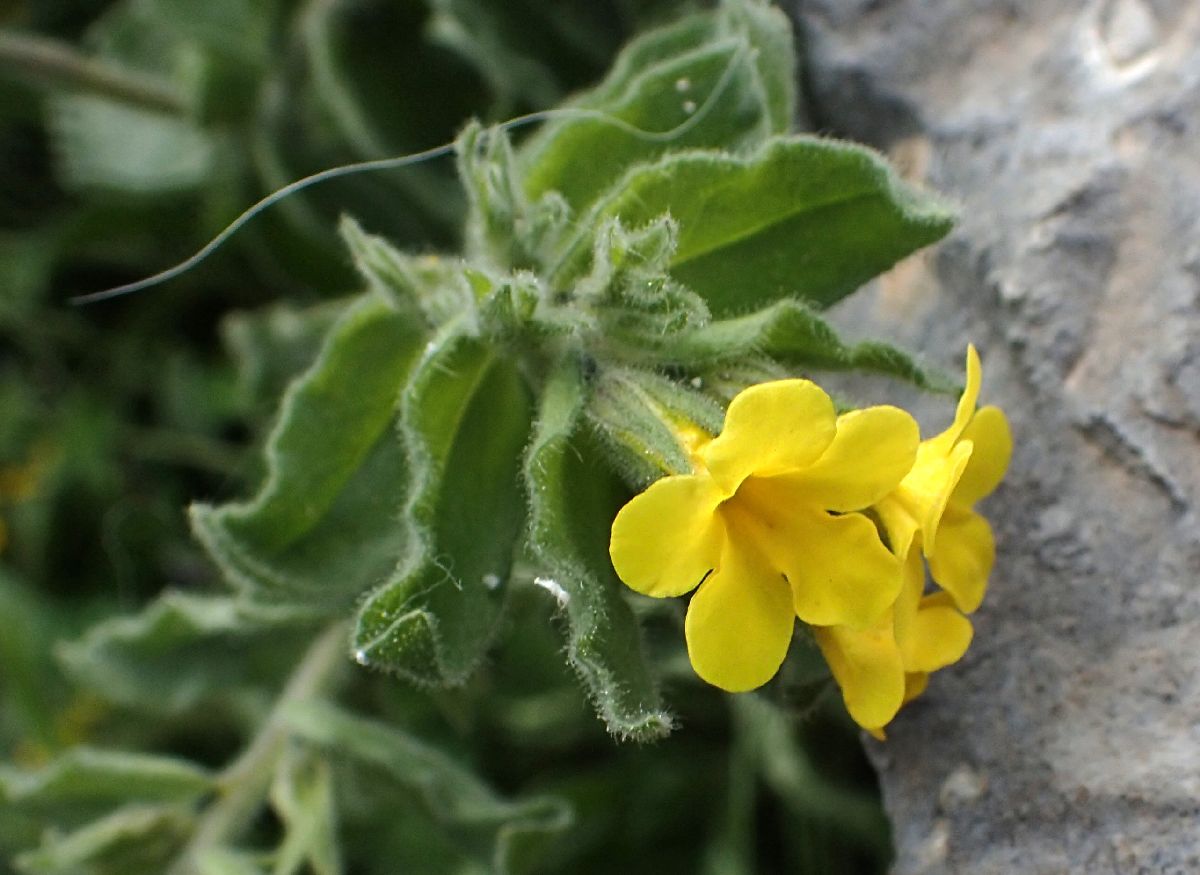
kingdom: Plantae
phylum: Tracheophyta
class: Magnoliopsida
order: Boraginales
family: Boraginaceae
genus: Alkanna
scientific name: Alkanna hellenica
